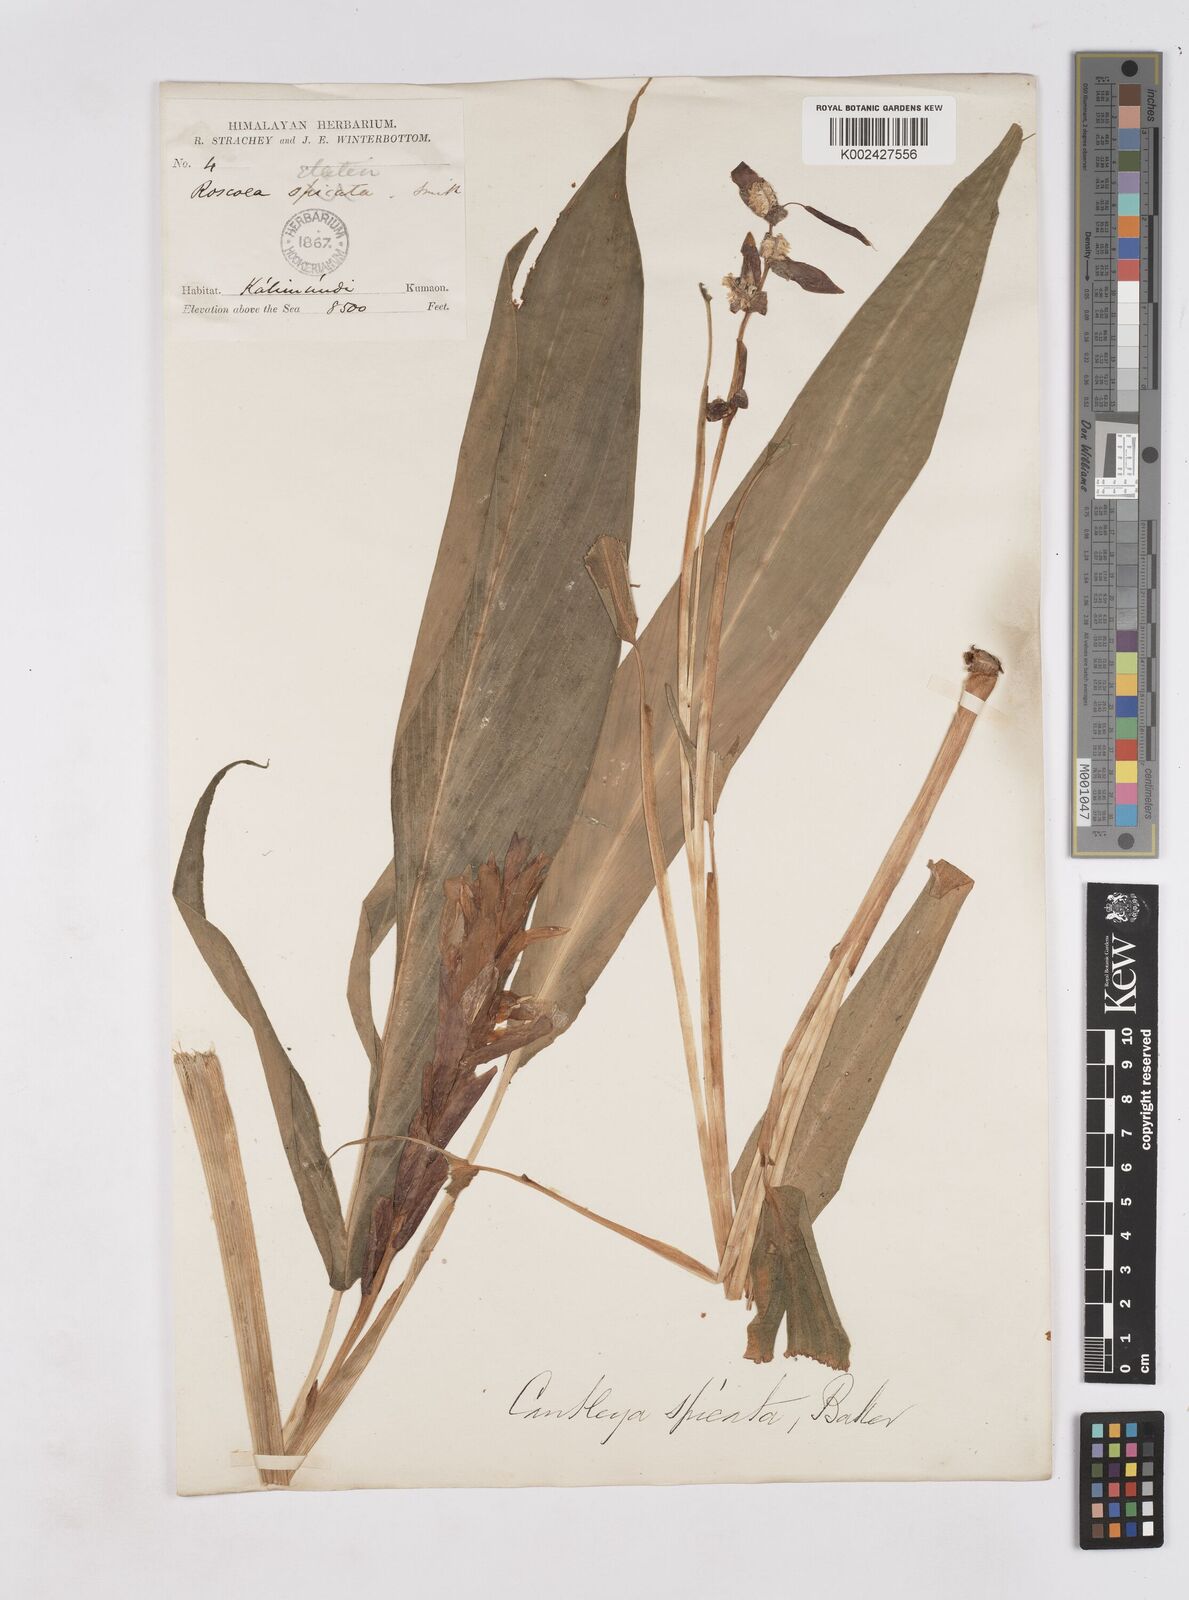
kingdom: Plantae
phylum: Tracheophyta
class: Liliopsida
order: Zingiberales
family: Zingiberaceae
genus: Cautleya
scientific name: Cautleya spicata
